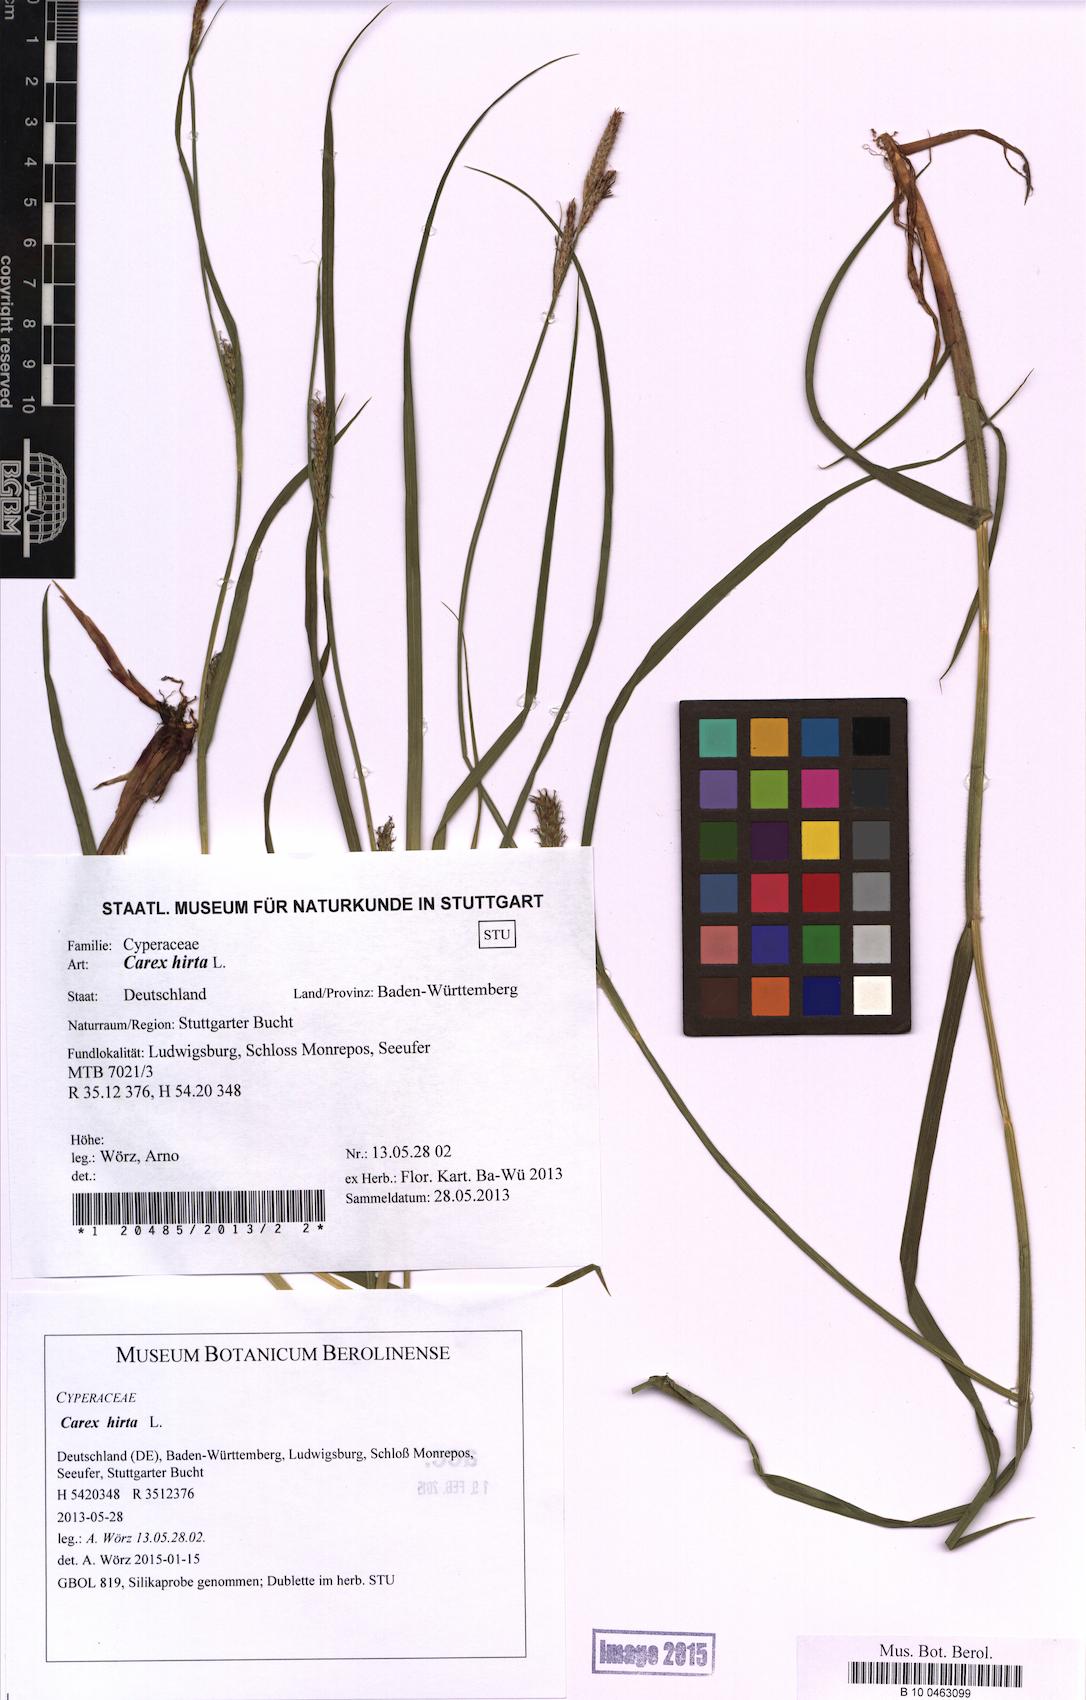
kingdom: Plantae
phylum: Tracheophyta
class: Liliopsida
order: Poales
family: Cyperaceae
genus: Carex
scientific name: Carex hirta
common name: Hairy sedge
